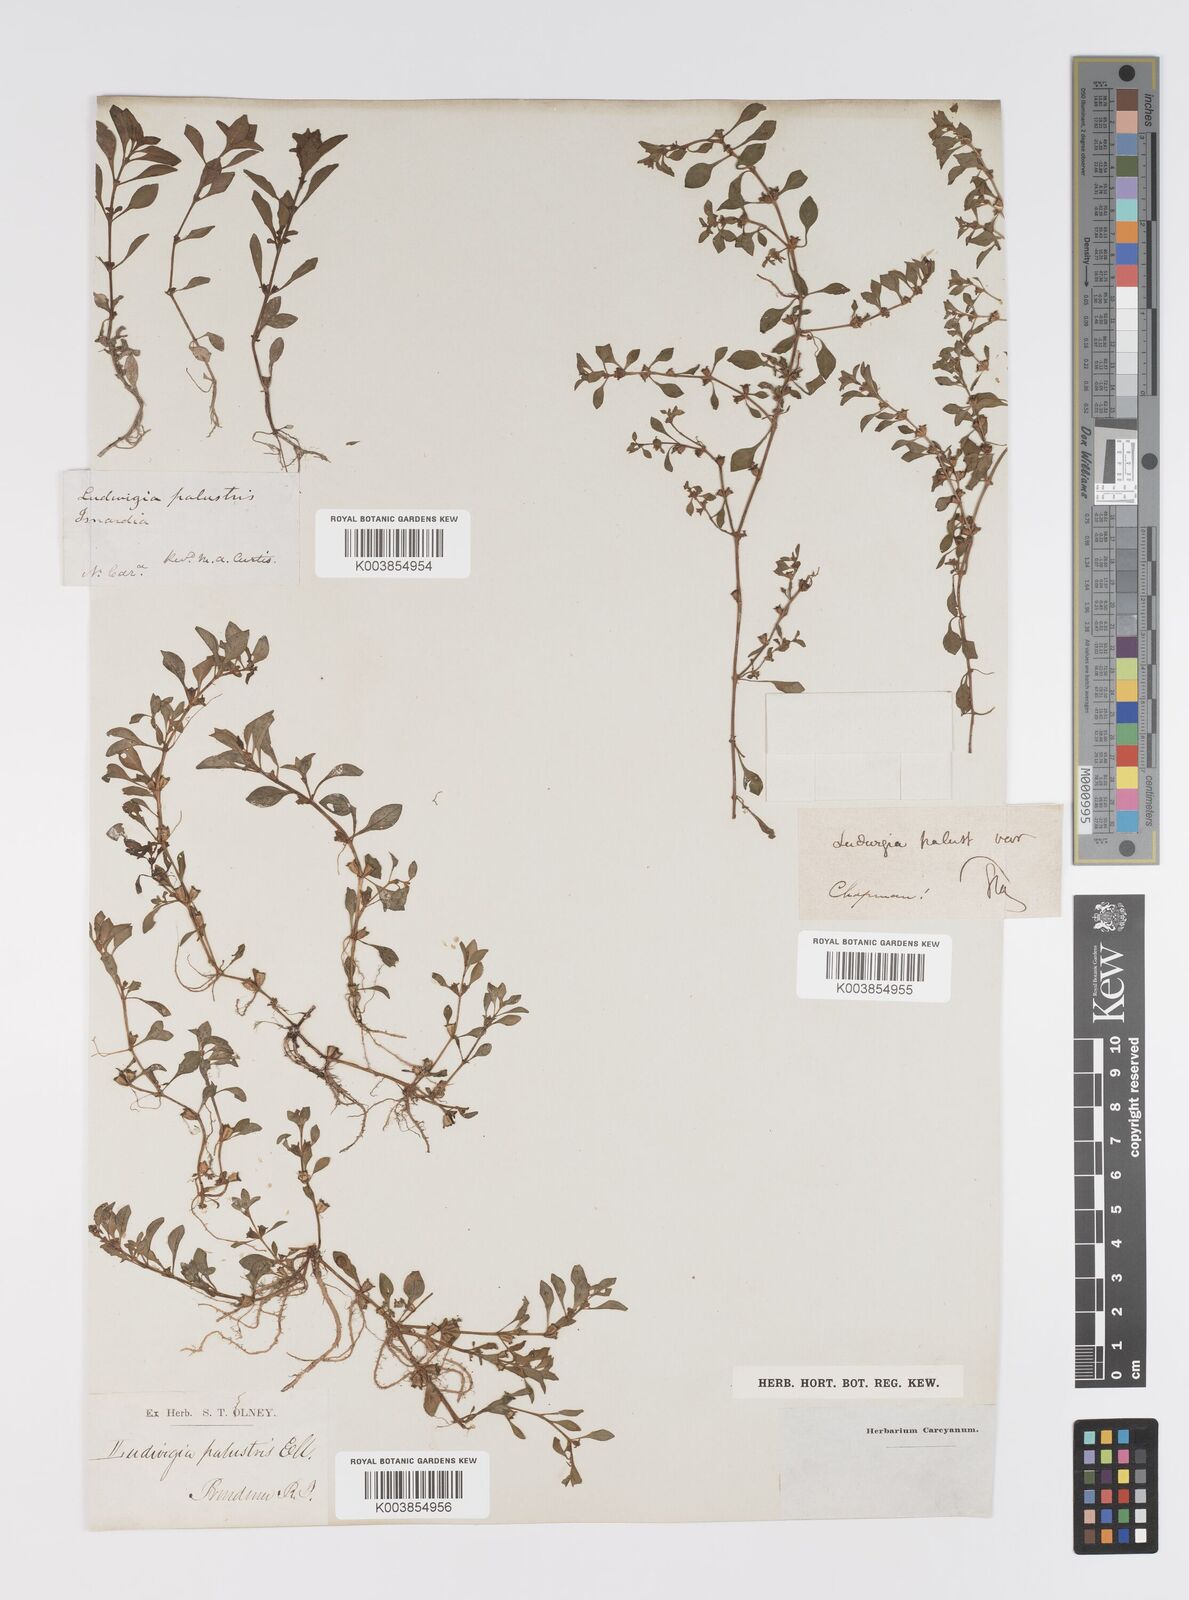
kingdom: Plantae
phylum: Tracheophyta
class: Magnoliopsida
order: Myrtales
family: Onagraceae
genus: Ludwigia
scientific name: Ludwigia palustris
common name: Hampshire-purslane
